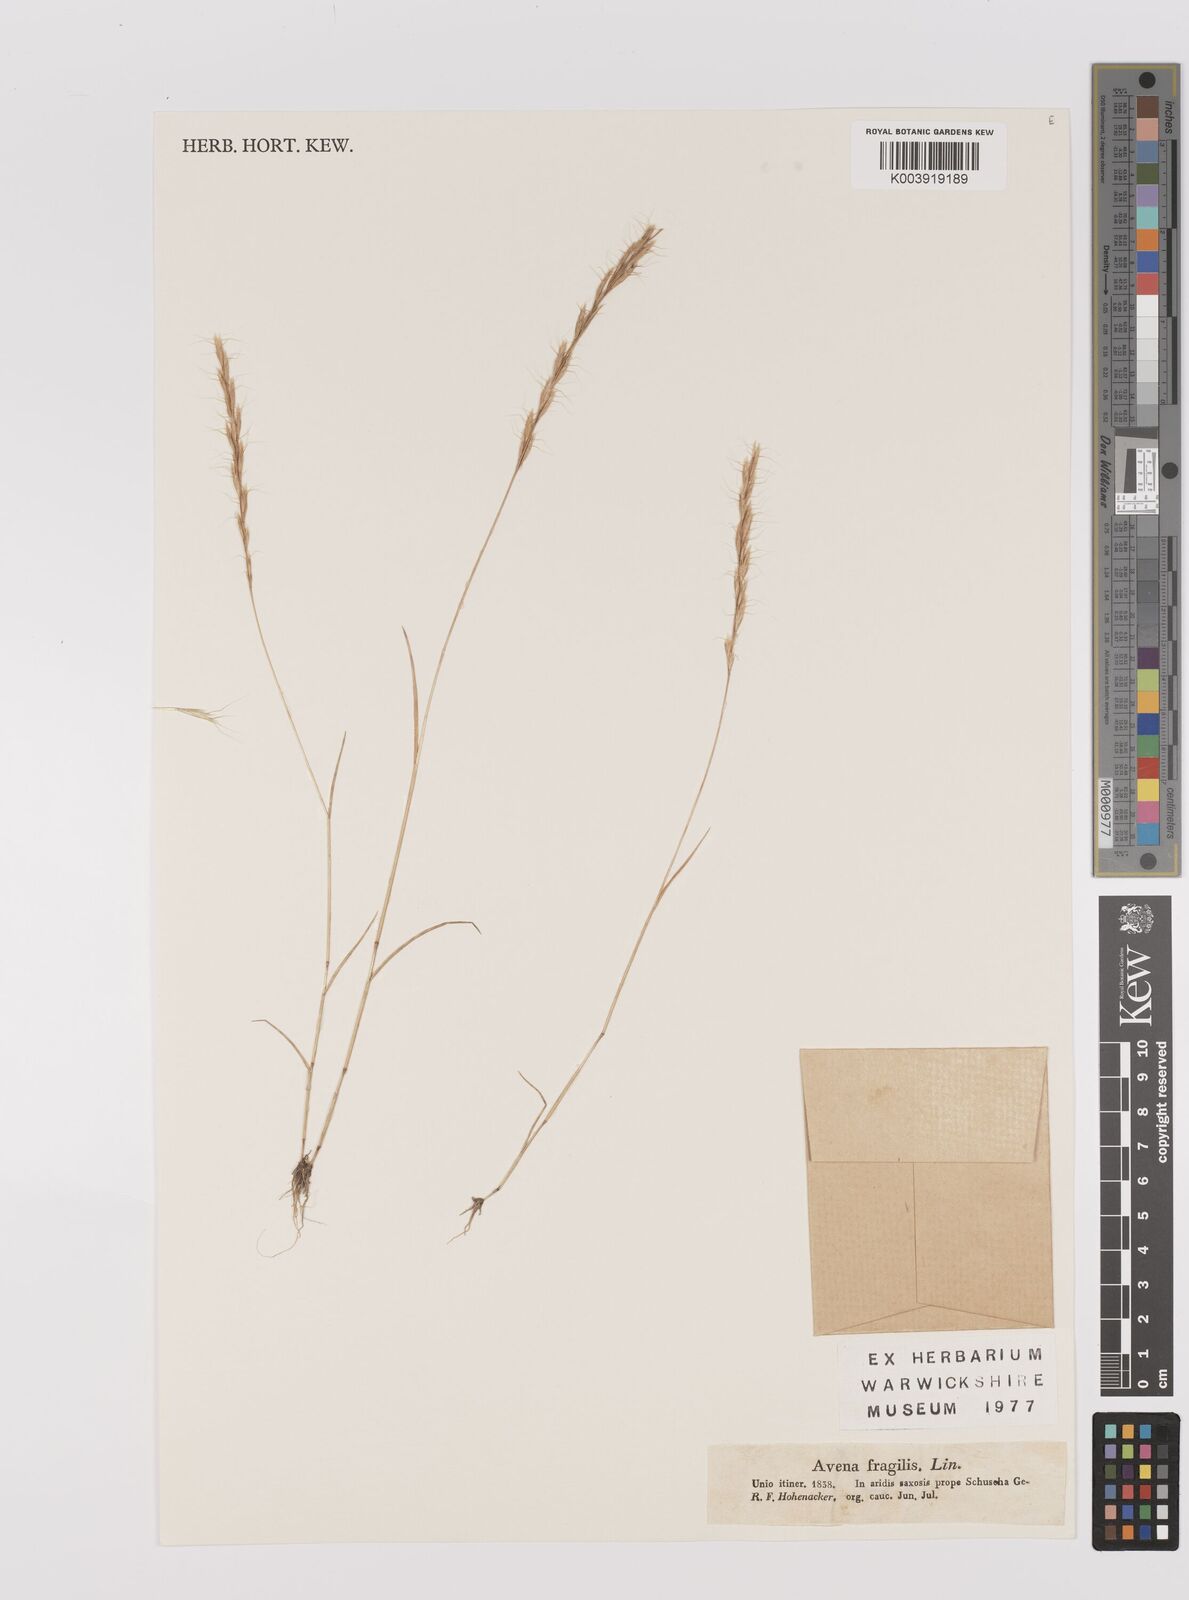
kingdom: Plantae
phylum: Tracheophyta
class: Liliopsida
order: Poales
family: Poaceae
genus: Gaudinia
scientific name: Gaudinia fragilis
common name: French oat-grass
